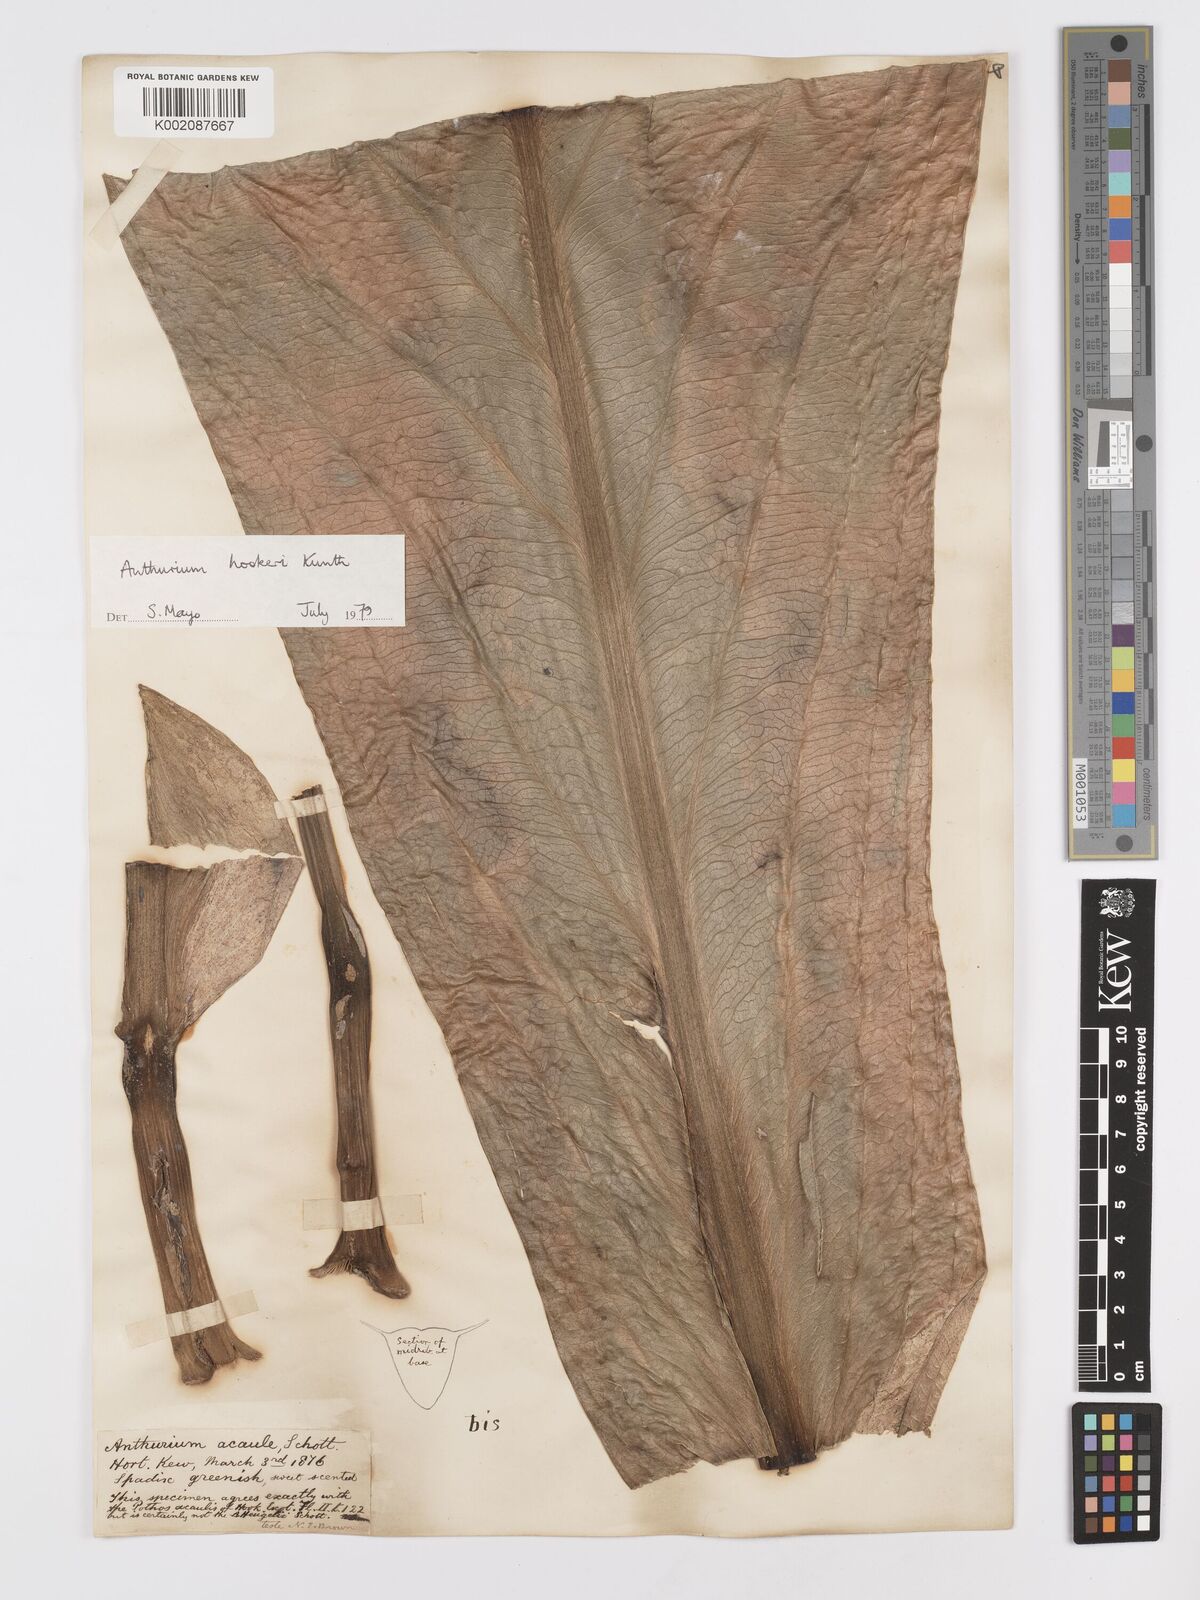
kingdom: Plantae
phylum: Tracheophyta
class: Liliopsida
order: Alismatales
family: Araceae
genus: Anthurium
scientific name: Anthurium hookeri
